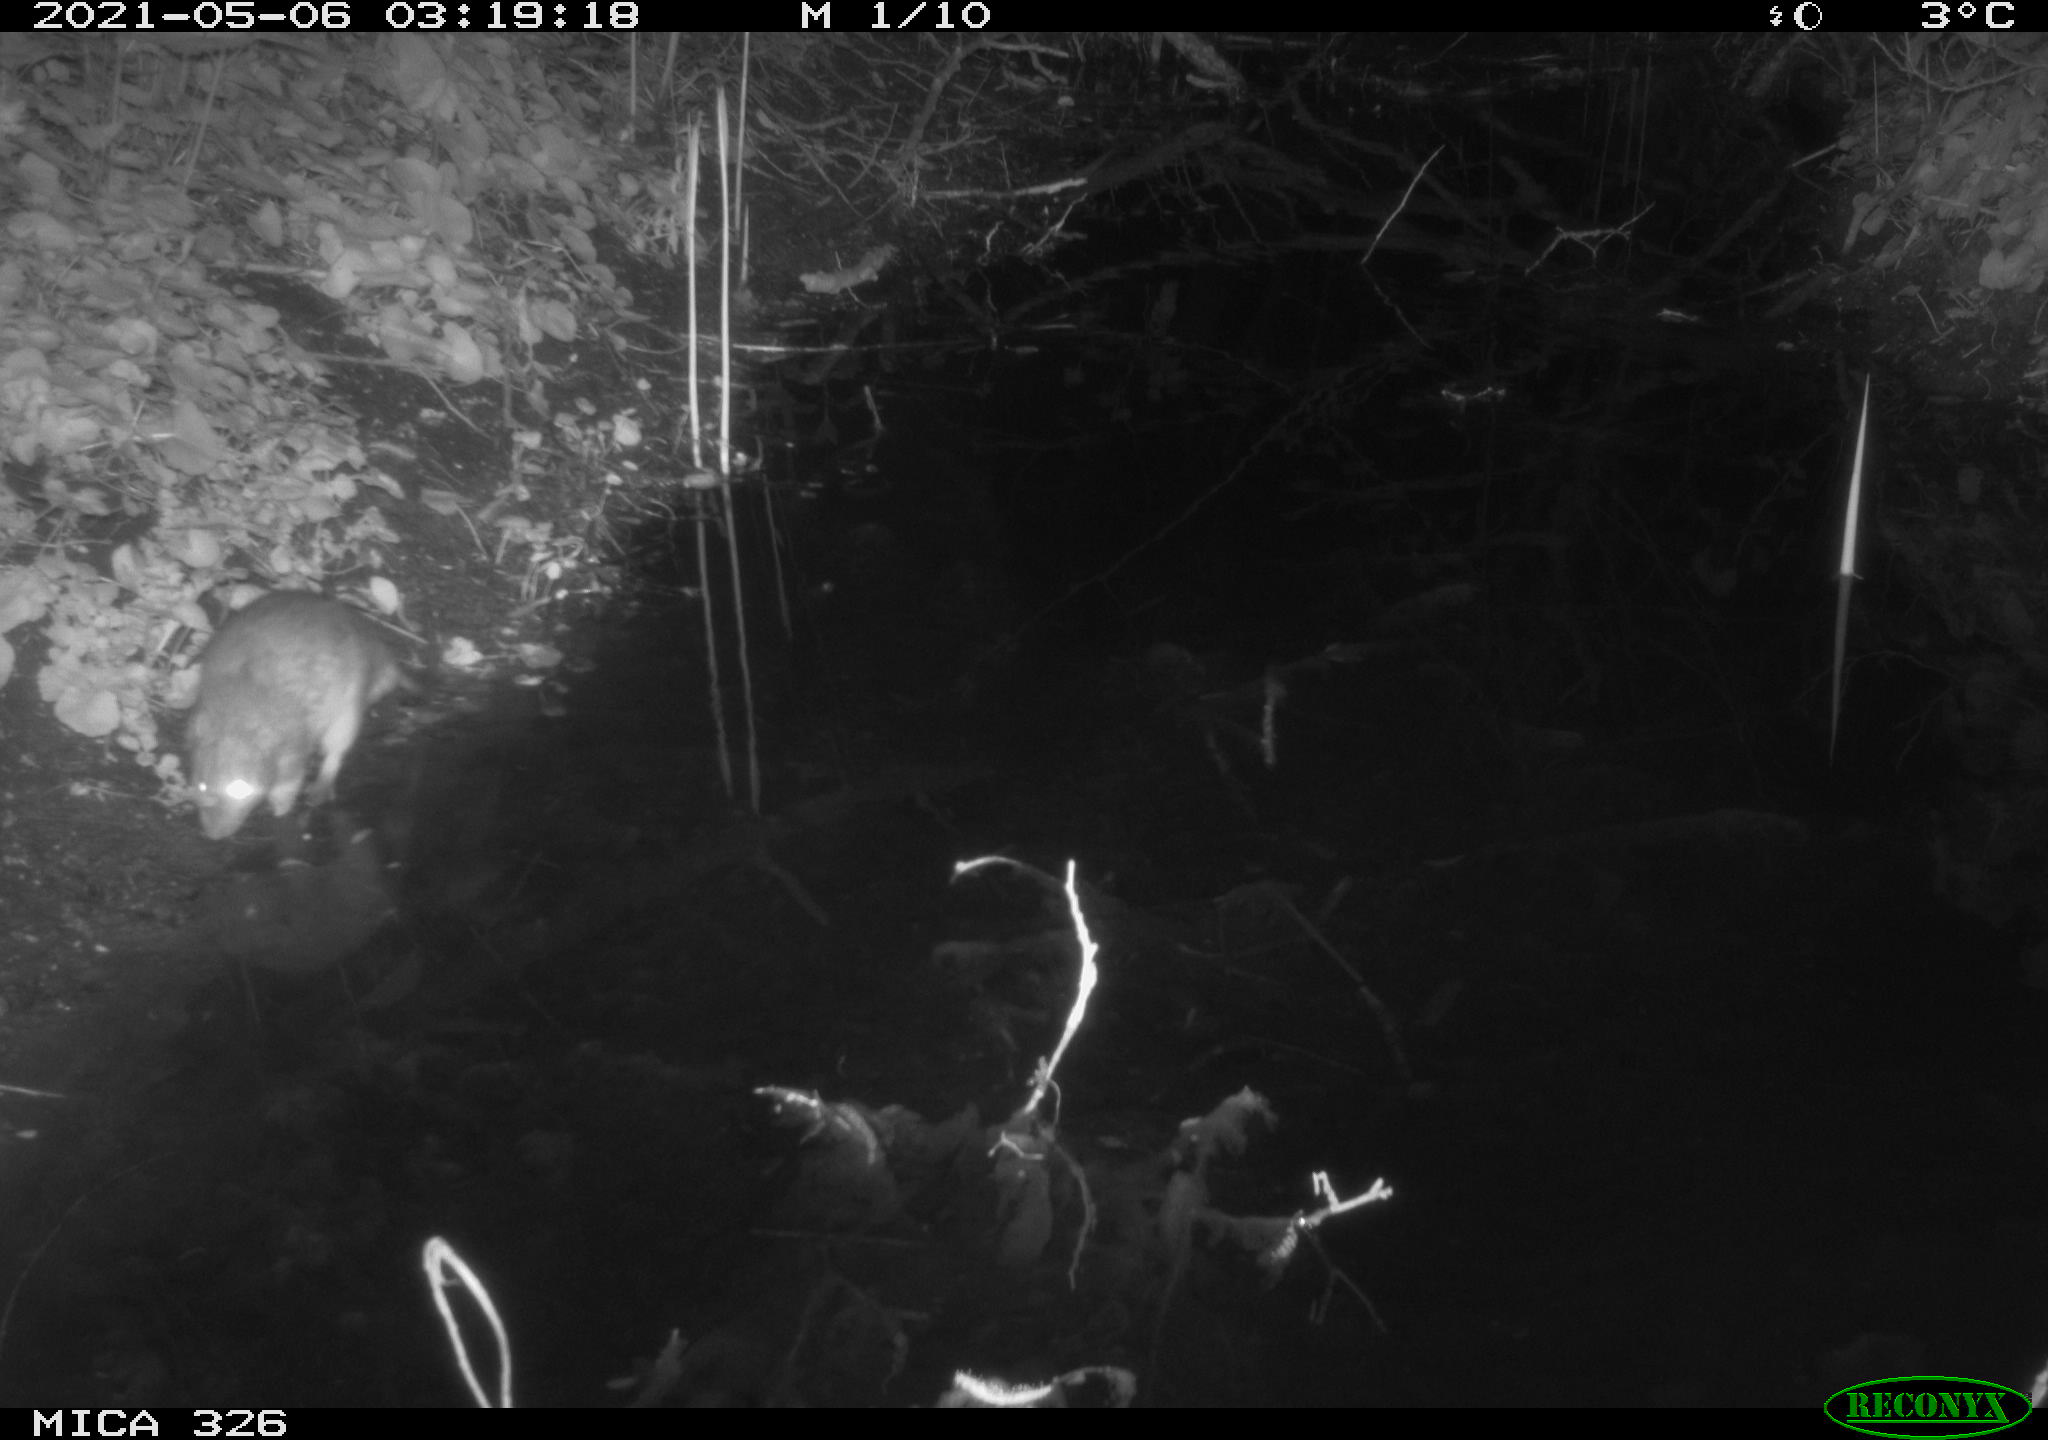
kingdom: Animalia
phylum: Chordata
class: Mammalia
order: Rodentia
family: Muridae
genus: Rattus
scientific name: Rattus norvegicus
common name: Brown rat
